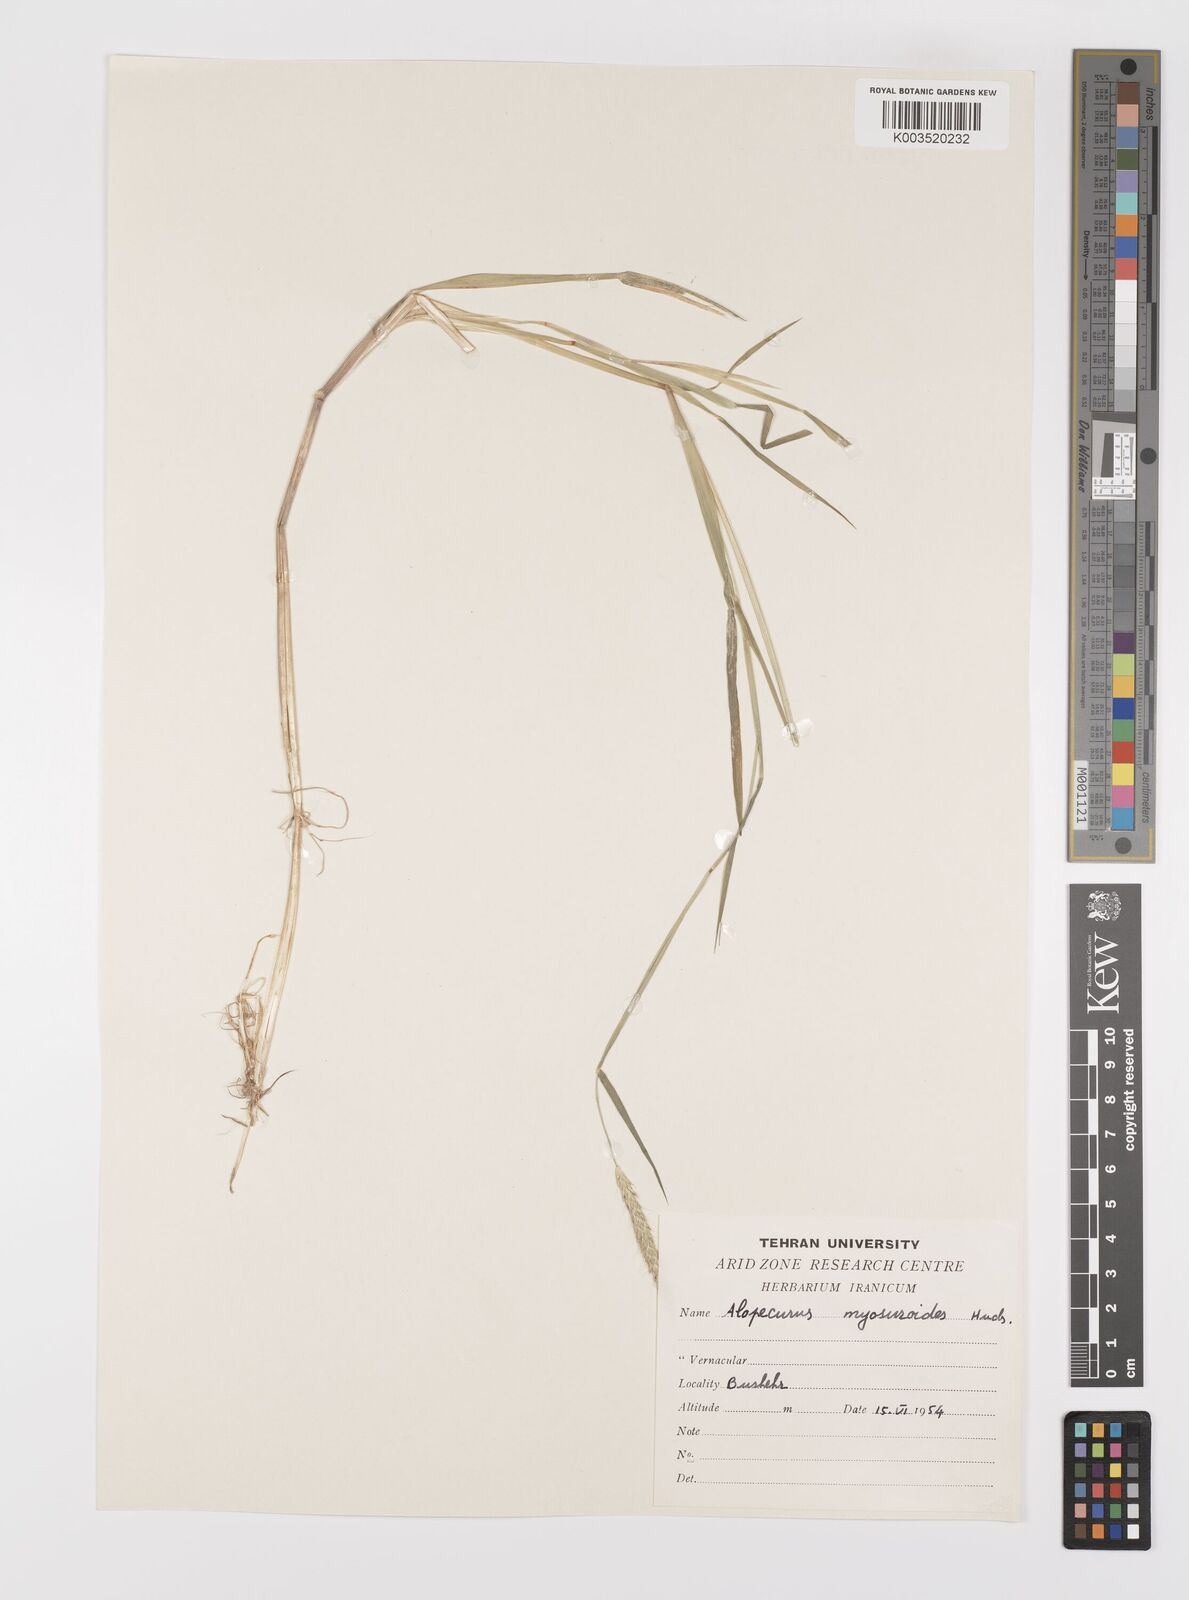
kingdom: Plantae
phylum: Tracheophyta
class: Liliopsida
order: Poales
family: Poaceae
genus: Alopecurus
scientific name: Alopecurus myosuroides
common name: Black-grass
